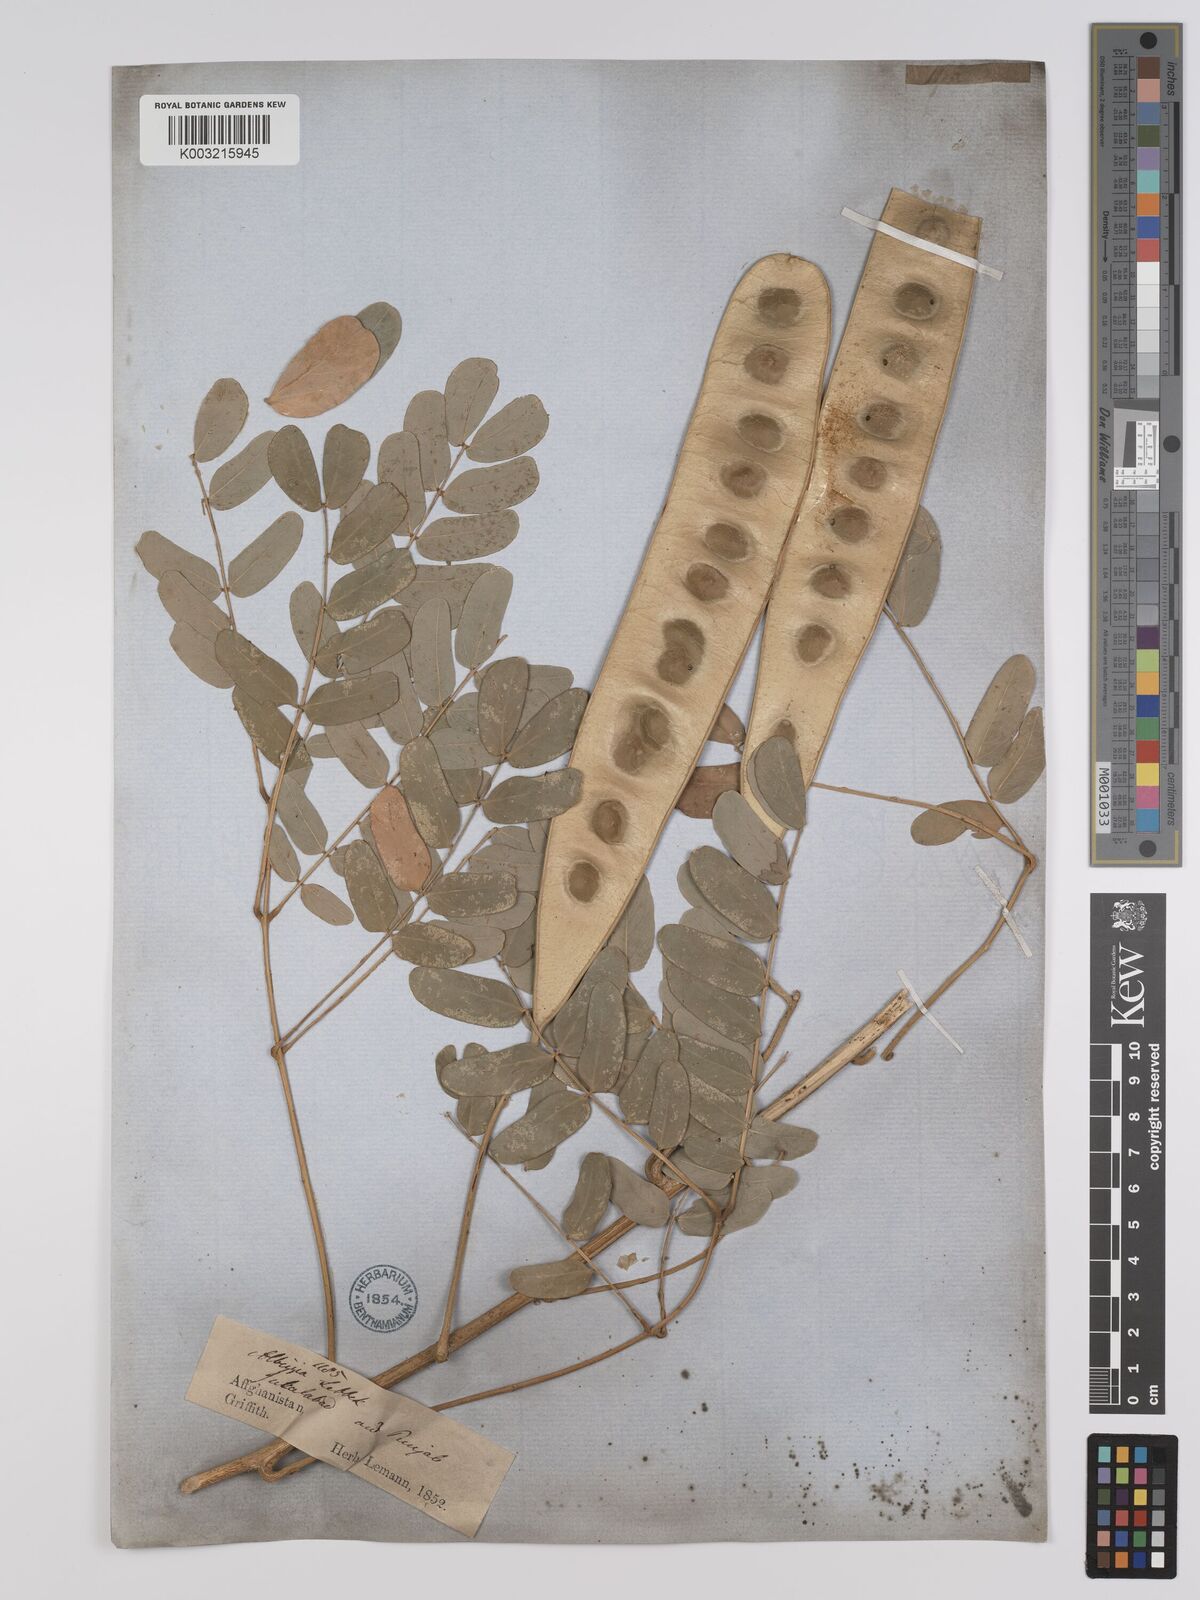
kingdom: Plantae
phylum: Tracheophyta
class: Magnoliopsida
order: Fabales
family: Fabaceae
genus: Albizia
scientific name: Albizia lebbeck
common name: Woman's tongue
